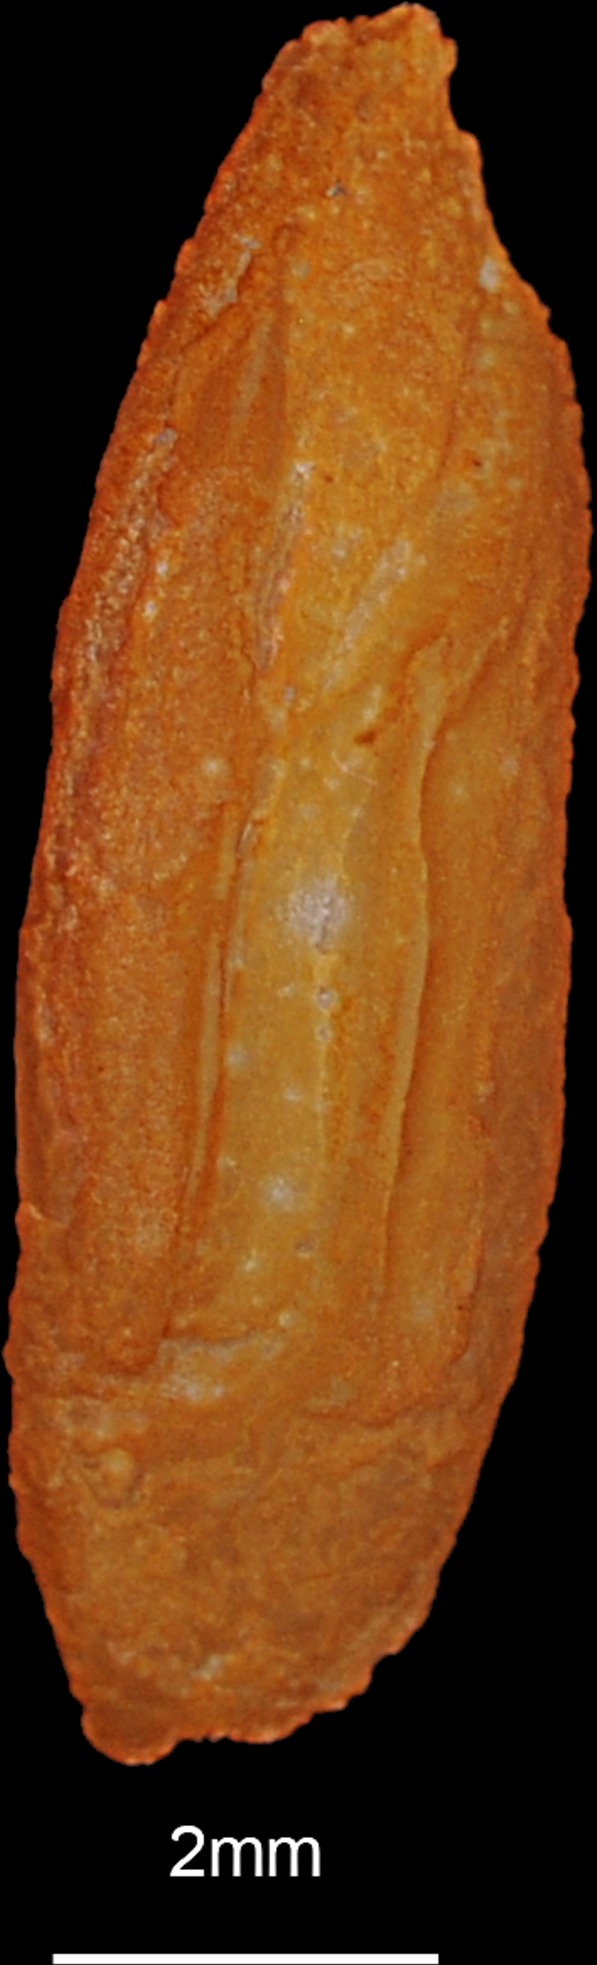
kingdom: Animalia
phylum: Chordata
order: Perciformes
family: Sphyraenidae
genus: Sphyraena
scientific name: Sphyraena sphyraena
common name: European barracuda
